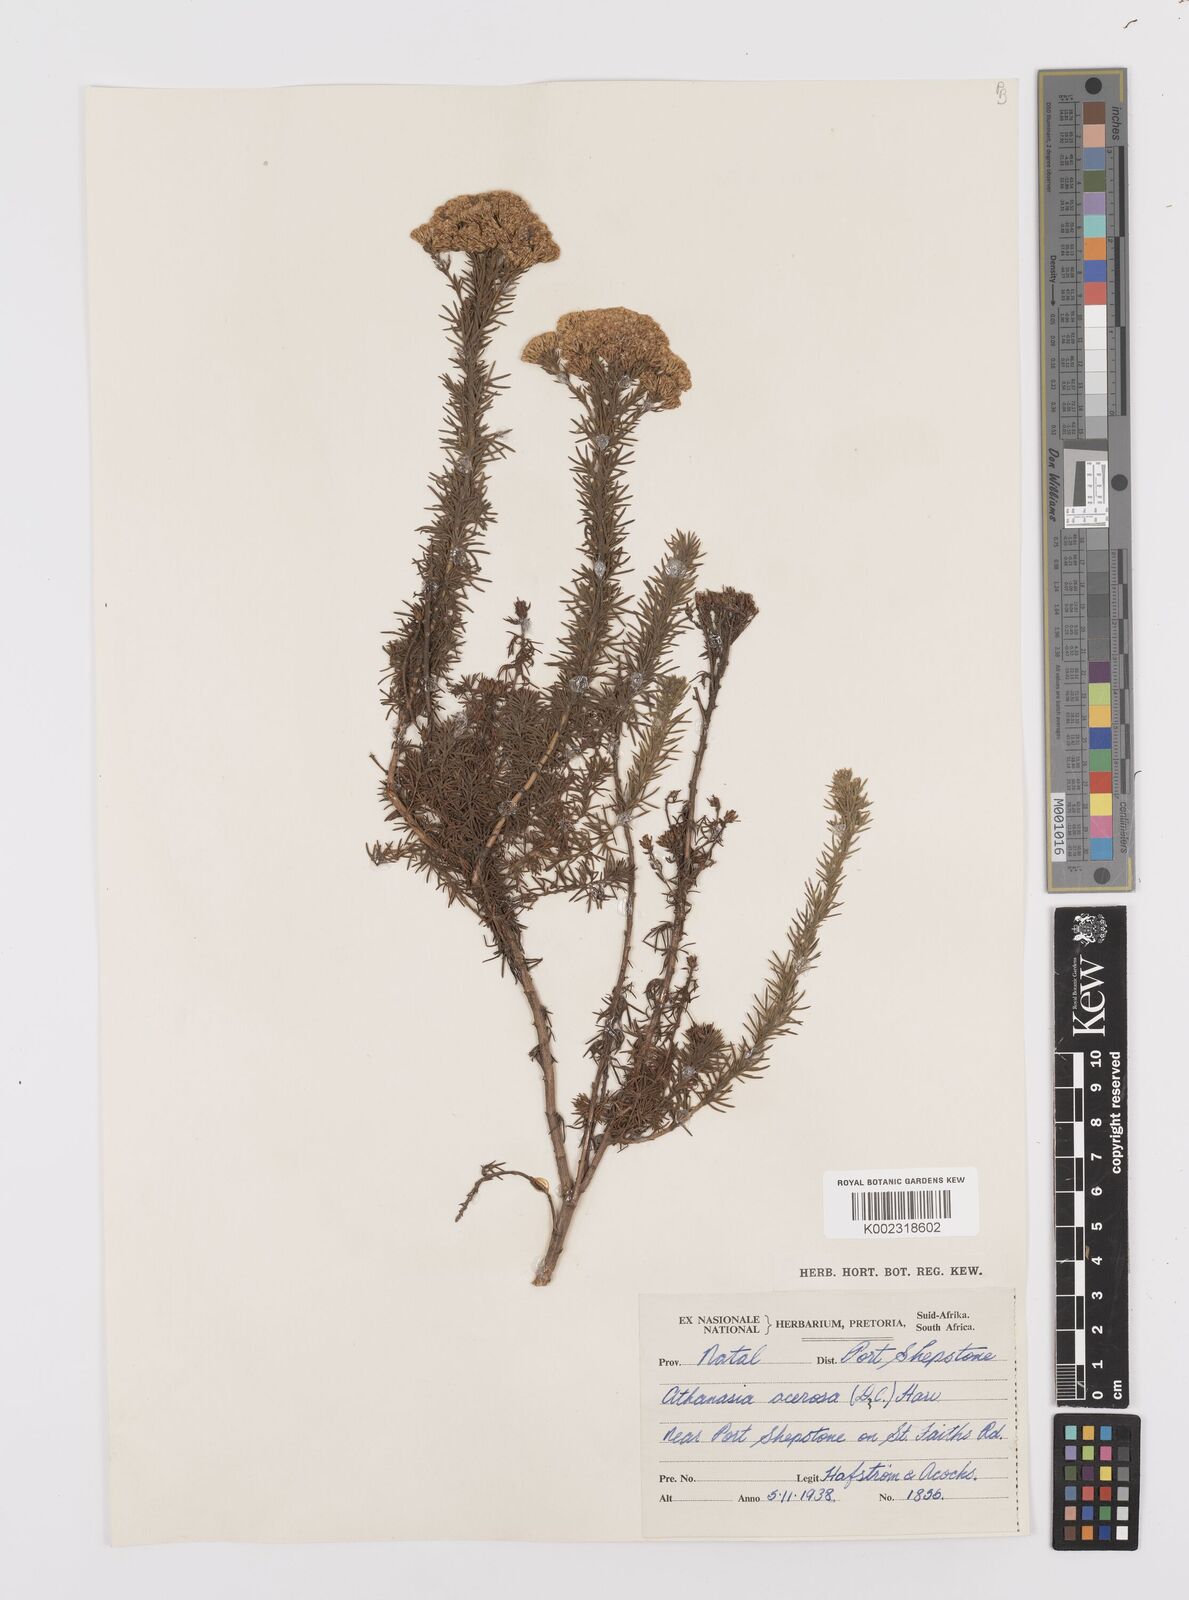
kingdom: Plantae
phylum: Tracheophyta
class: Magnoliopsida
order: Asterales
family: Asteraceae
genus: Phymaspermum
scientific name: Phymaspermum acerosum
